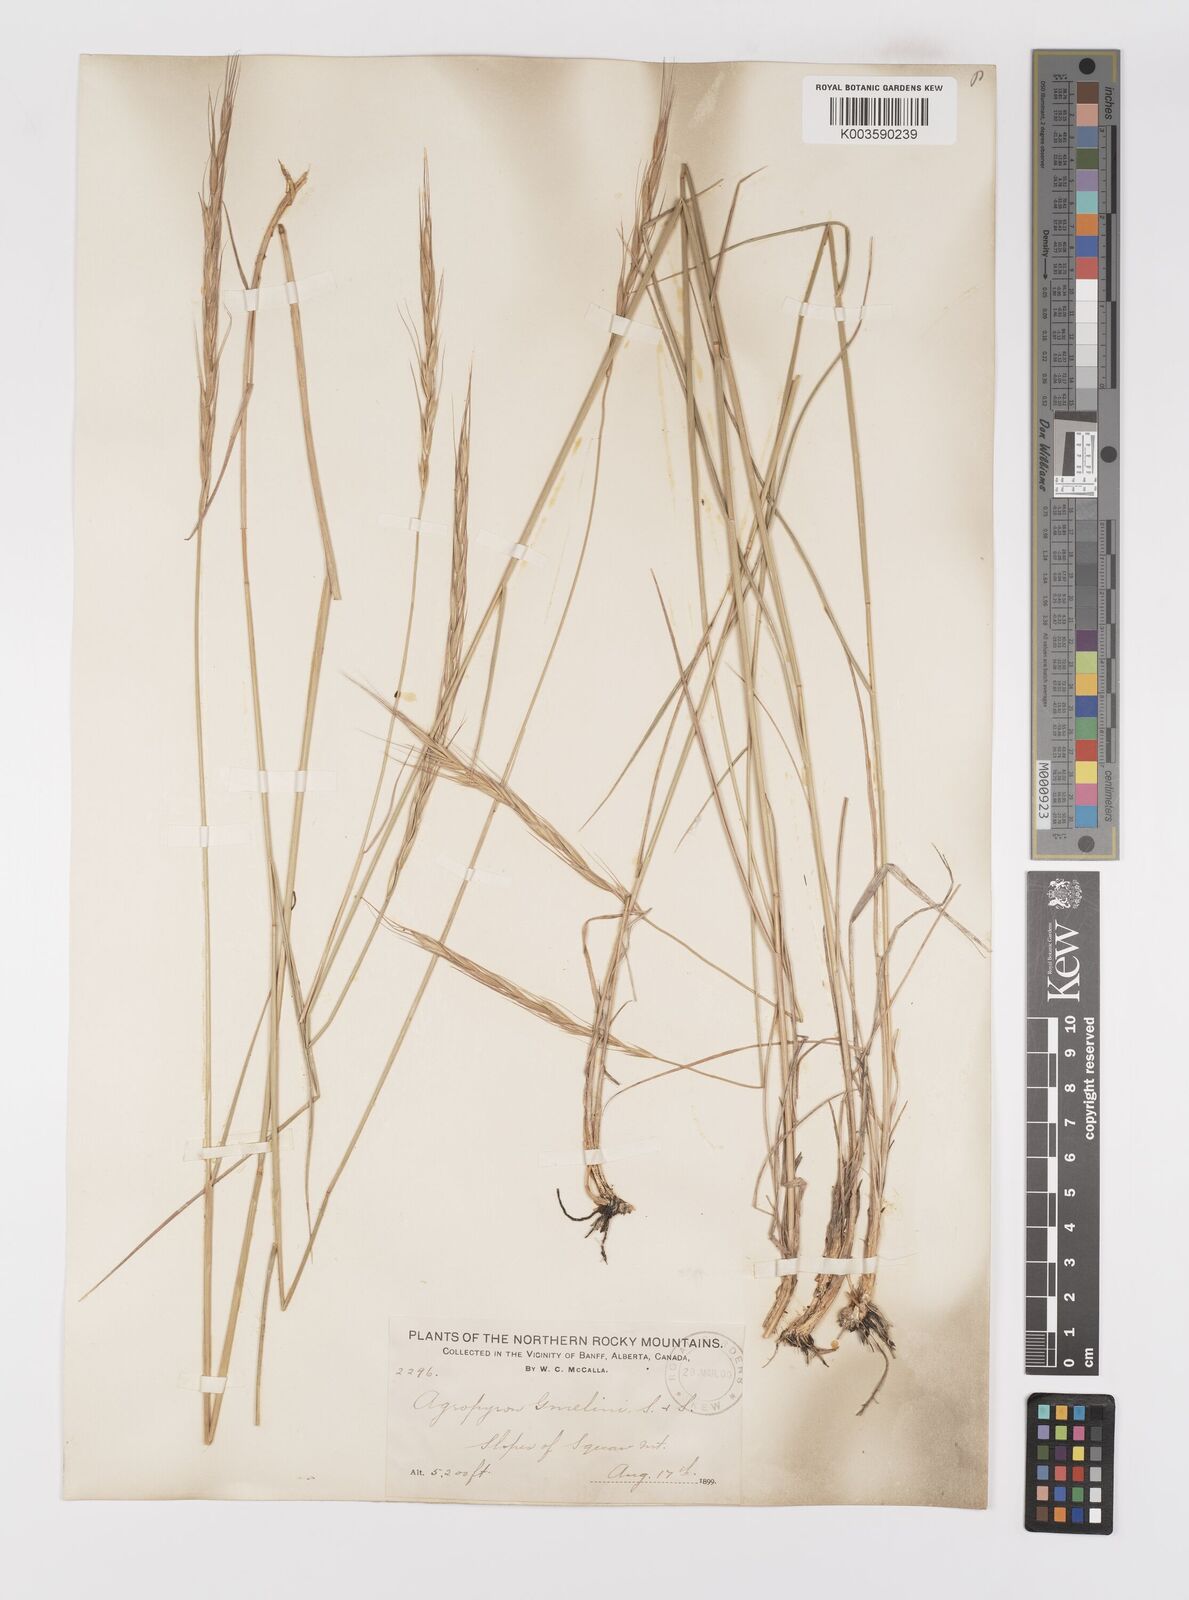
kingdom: Plantae
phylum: Tracheophyta
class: Liliopsida
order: Poales
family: Poaceae
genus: Elymus
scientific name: Elymus
